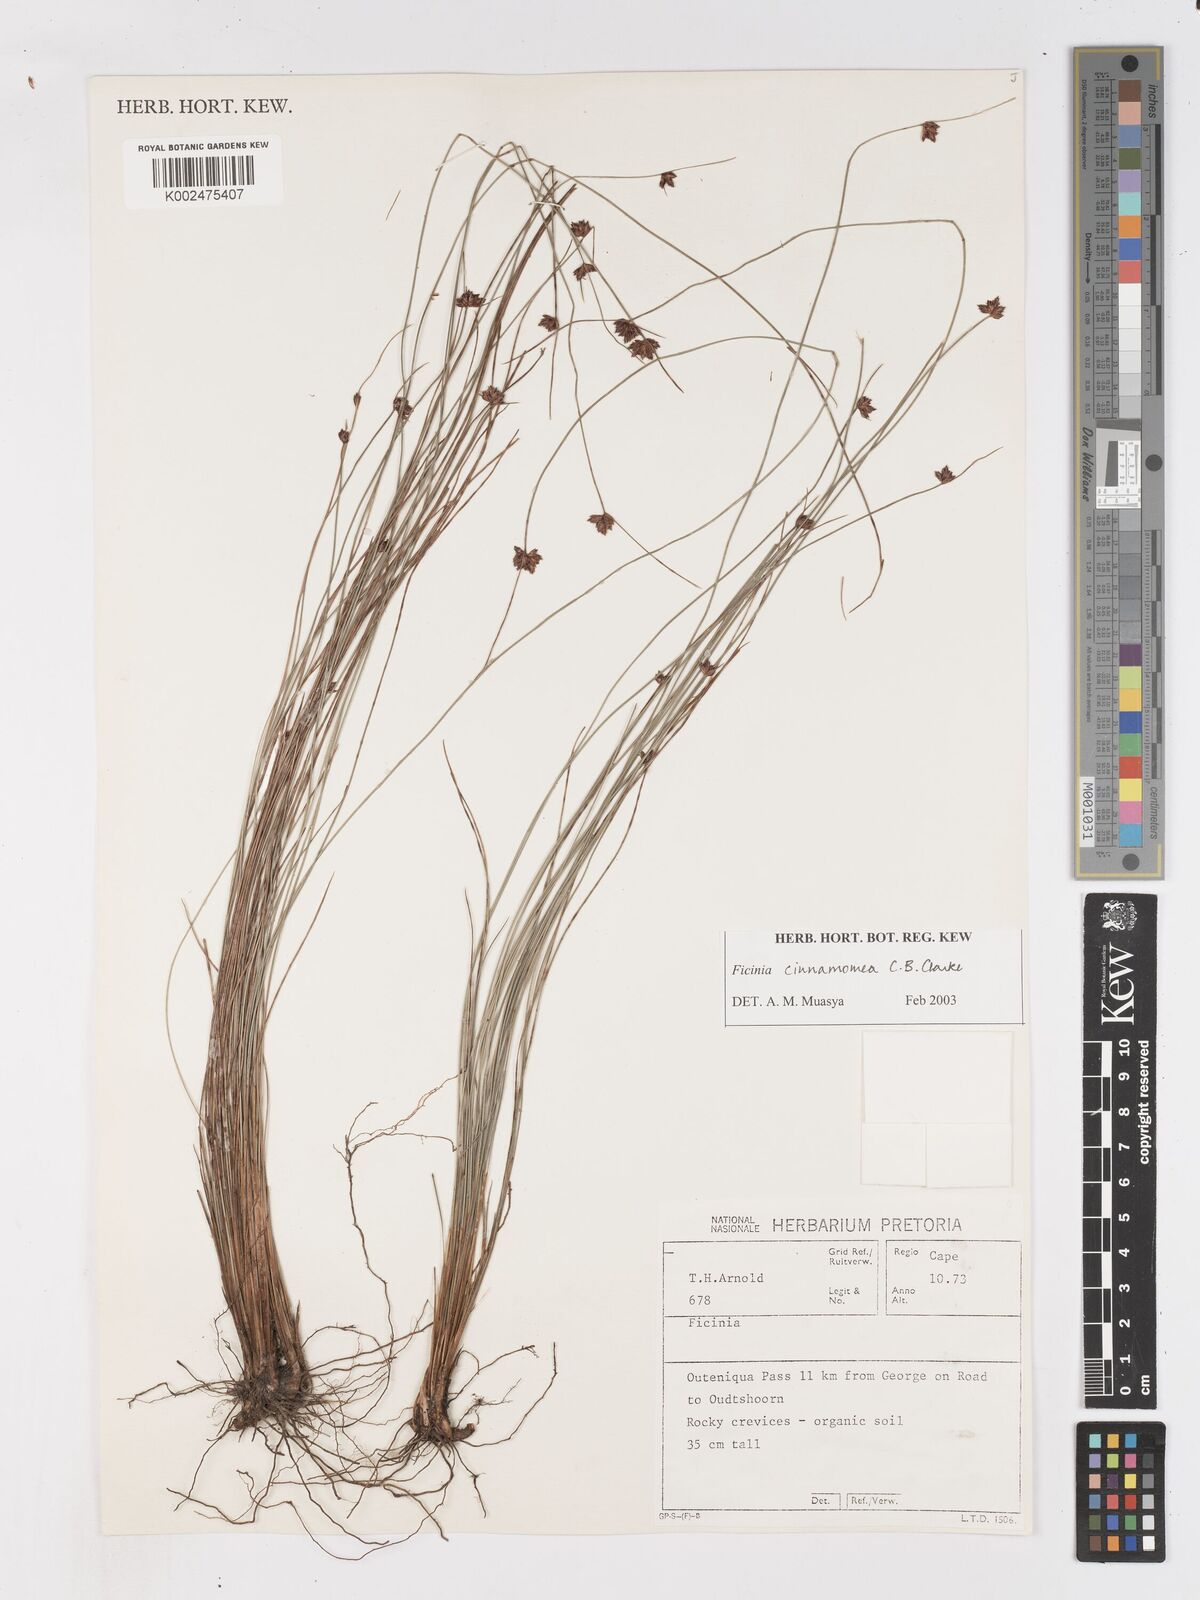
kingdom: Plantae
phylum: Tracheophyta
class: Liliopsida
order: Poales
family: Cyperaceae
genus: Ficinia
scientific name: Ficinia acuminata
